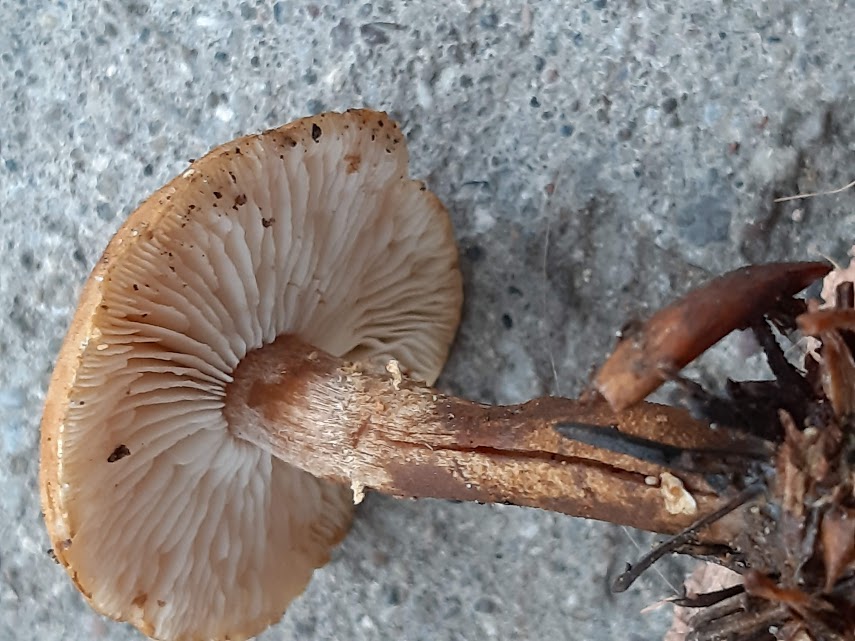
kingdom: Fungi
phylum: Basidiomycota
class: Agaricomycetes
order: Agaricales
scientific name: Agaricales
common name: champignonordenen
